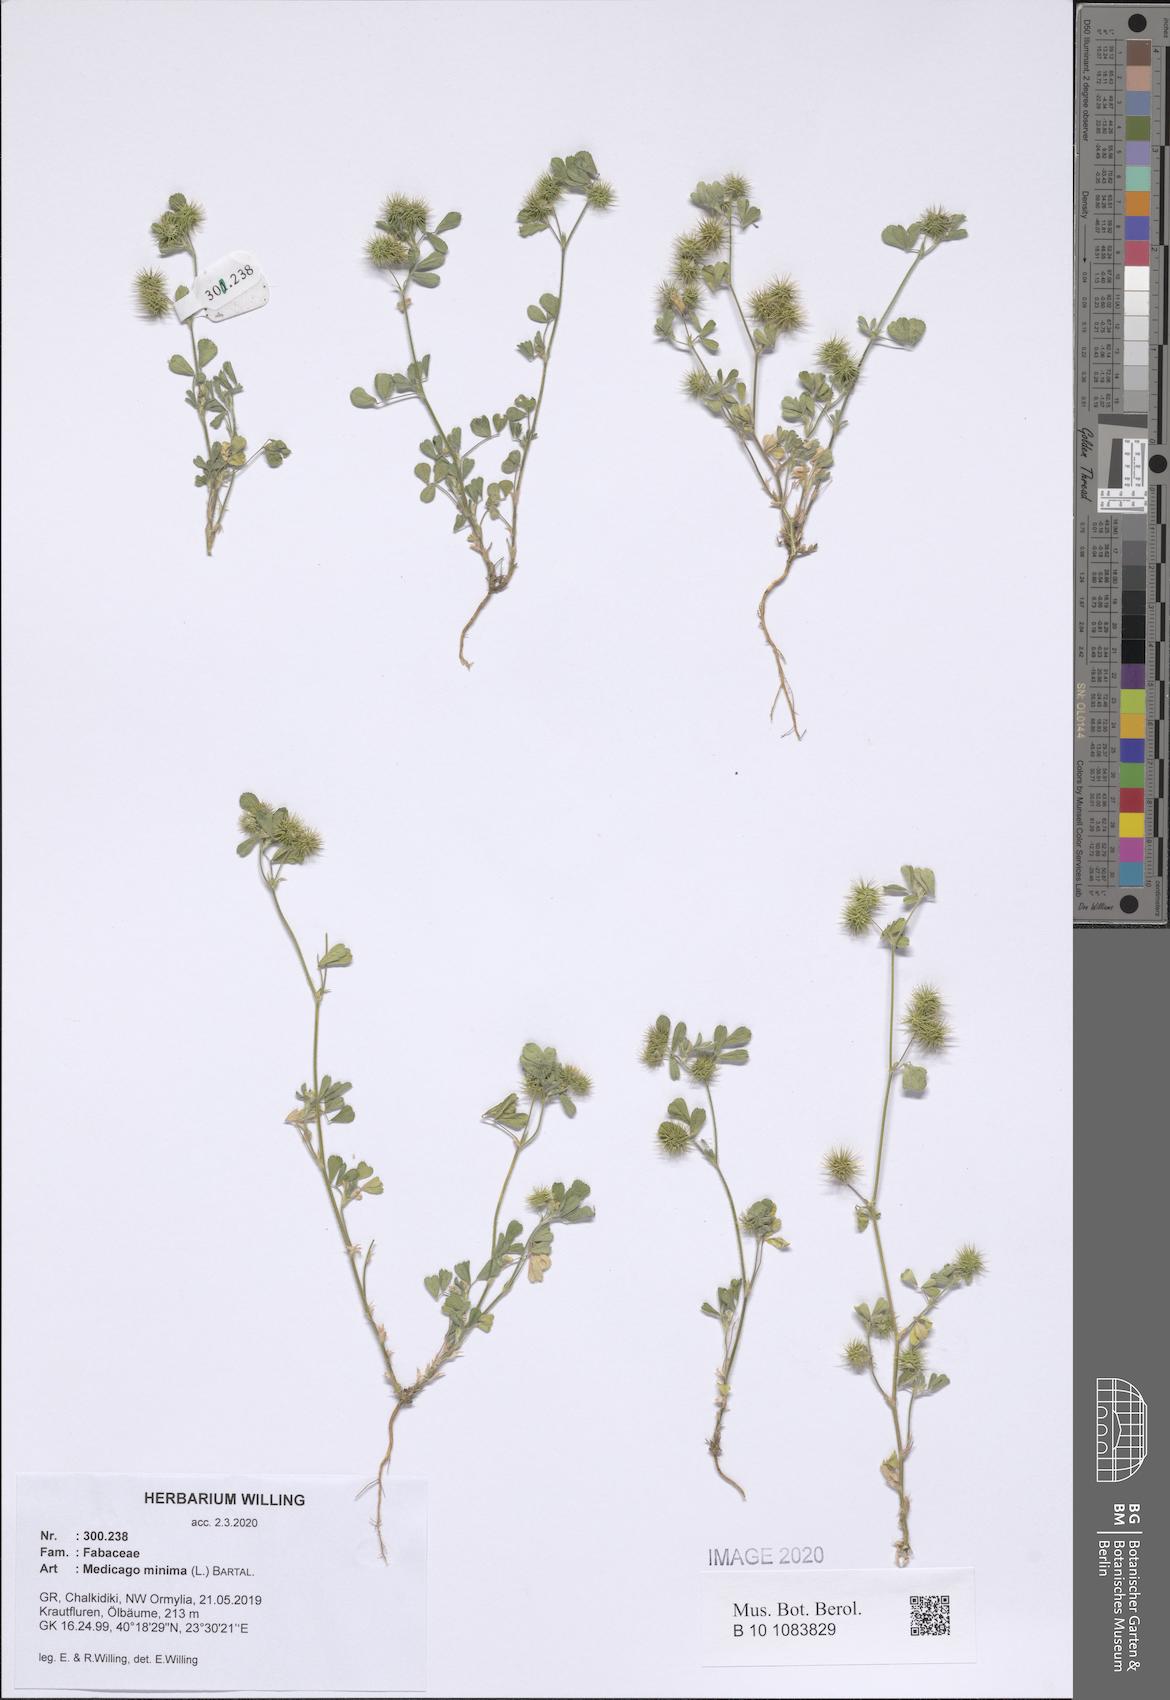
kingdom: Plantae
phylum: Tracheophyta
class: Magnoliopsida
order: Fabales
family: Fabaceae
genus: Medicago
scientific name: Medicago minima
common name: Little bur-clover
